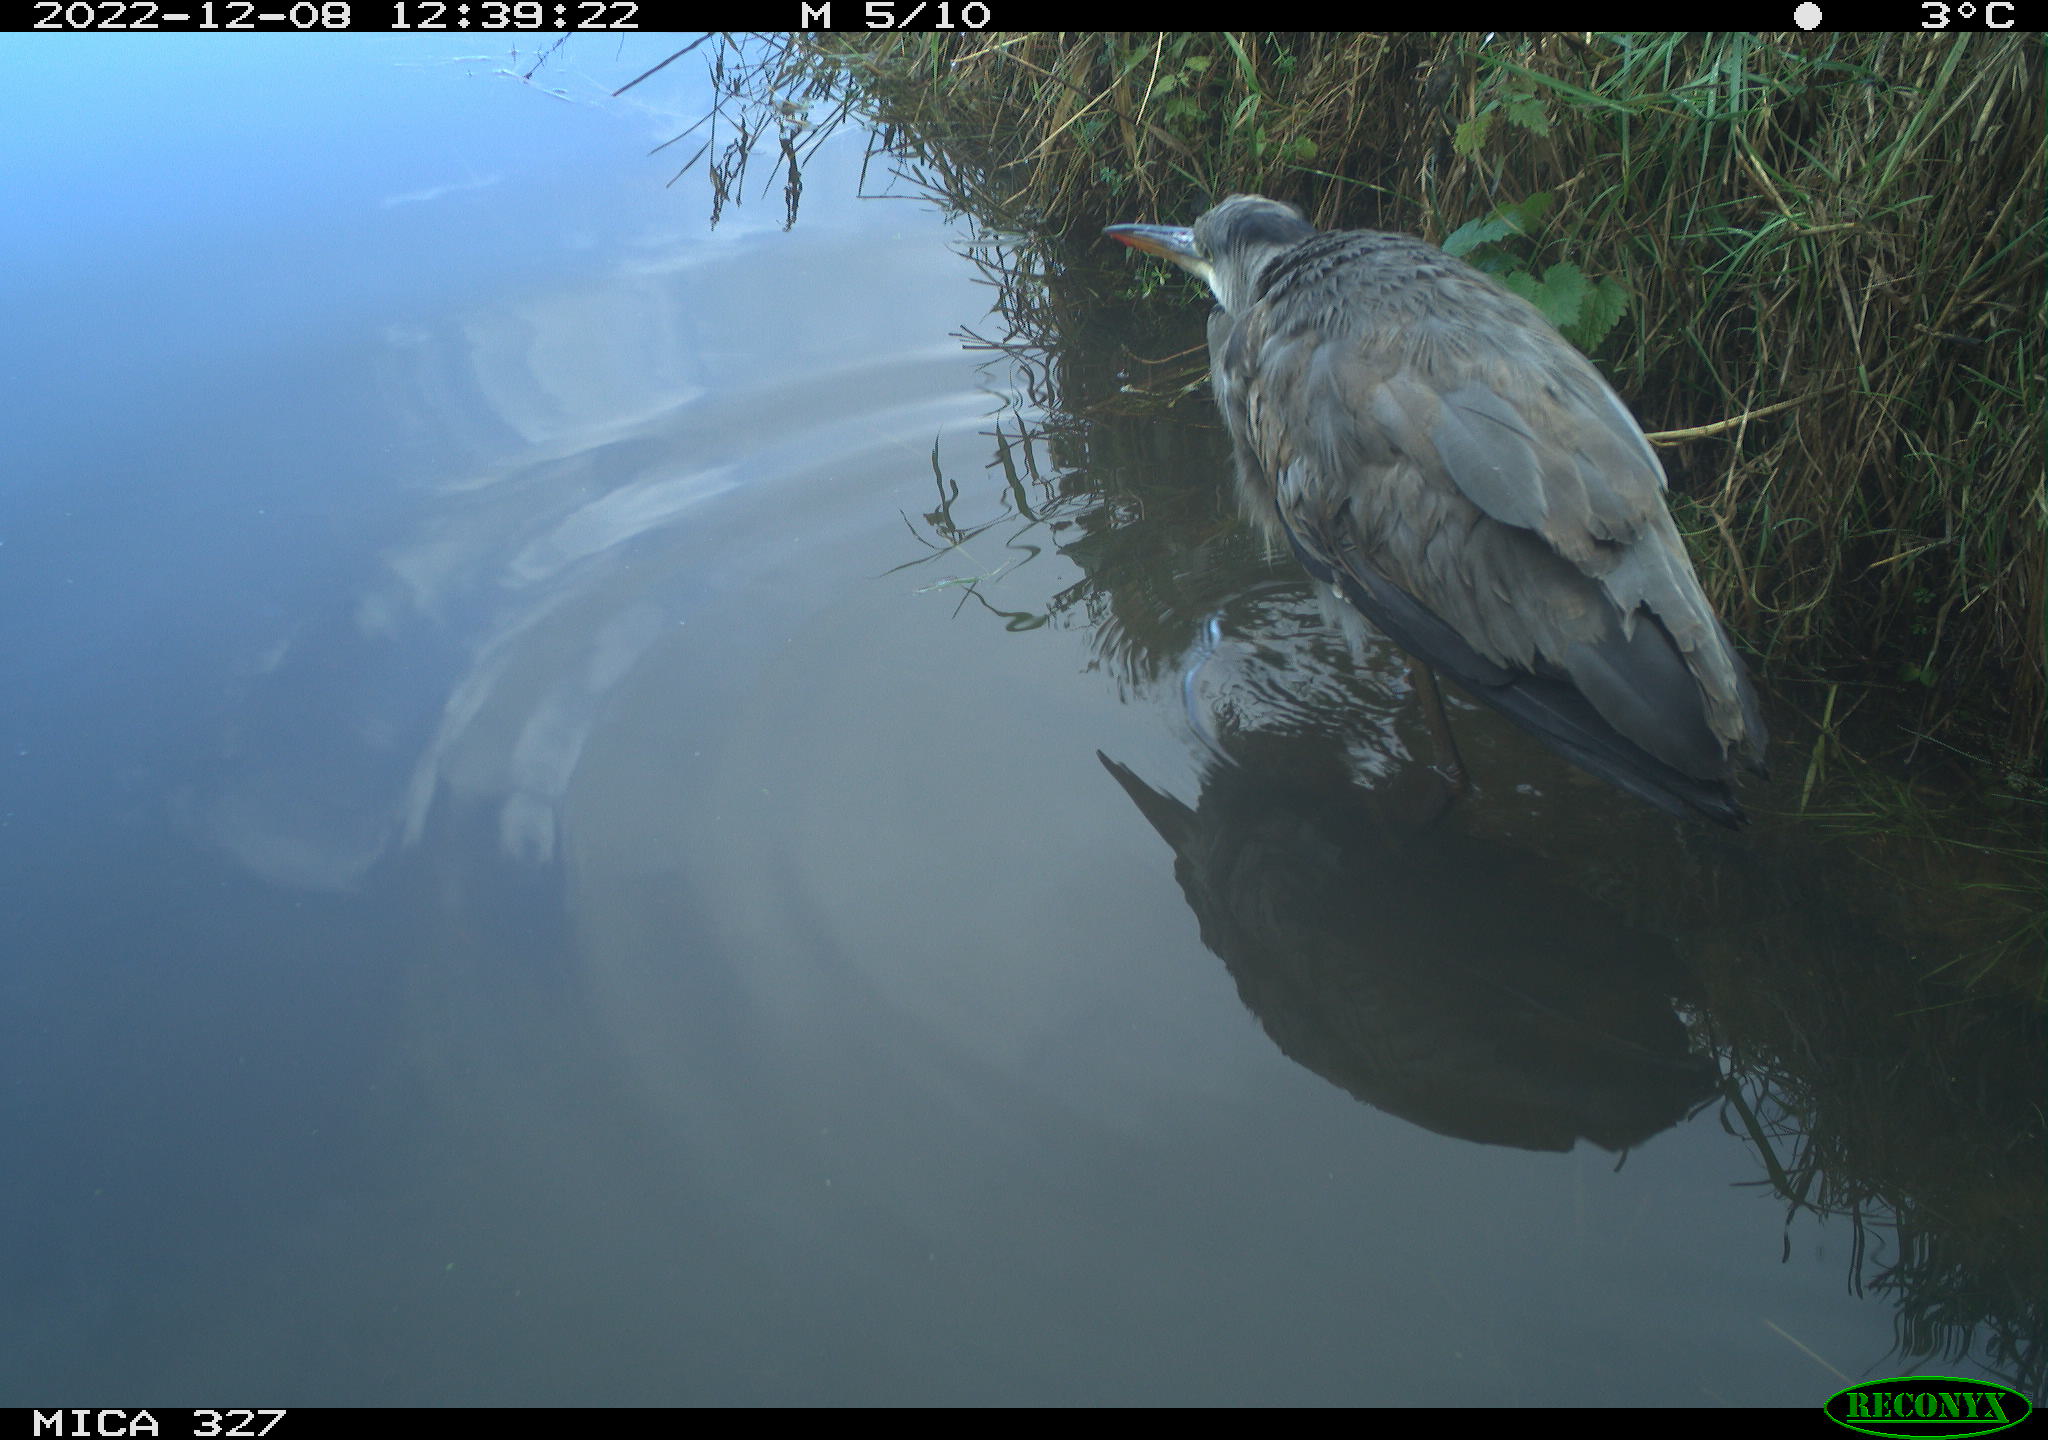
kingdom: Animalia
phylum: Chordata
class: Aves
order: Pelecaniformes
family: Ardeidae
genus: Ardea
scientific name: Ardea cinerea
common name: Grey heron
